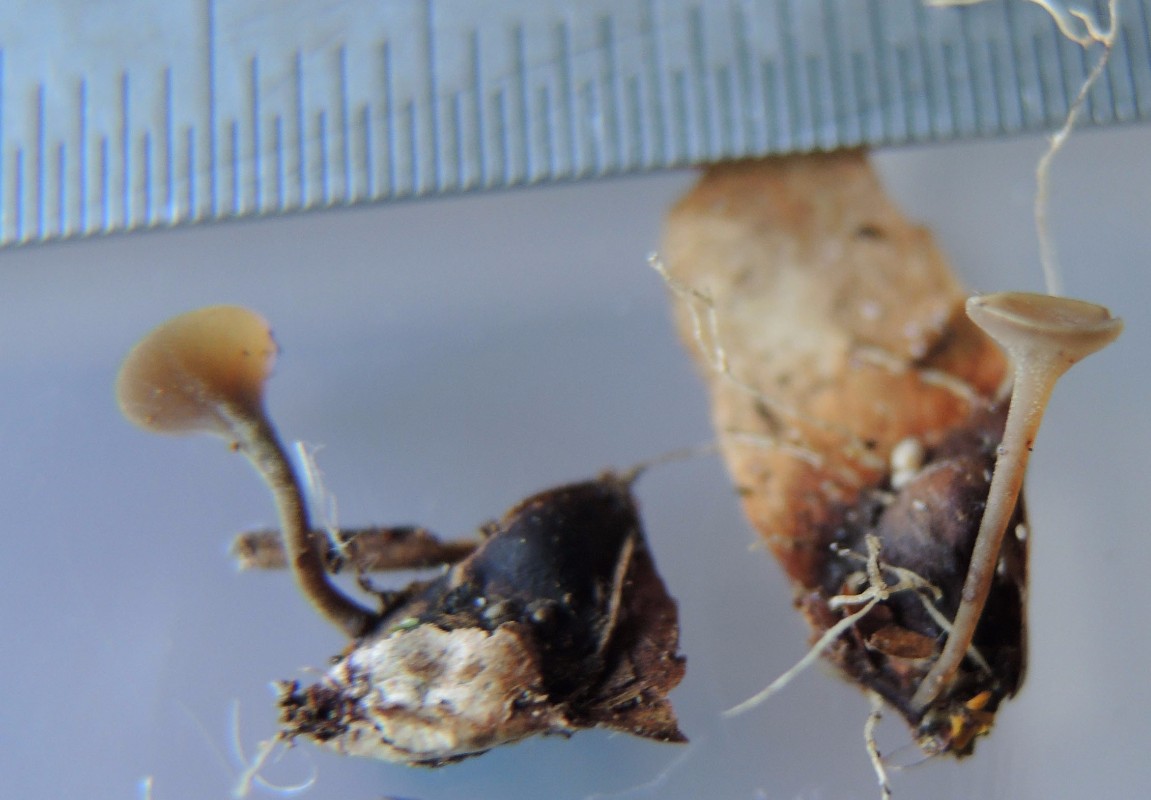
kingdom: Fungi
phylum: Ascomycota
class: Leotiomycetes
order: Helotiales
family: Sclerotiniaceae
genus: Ciboria
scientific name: Ciboria rufofusca
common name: kogleskæl-knoldskive
